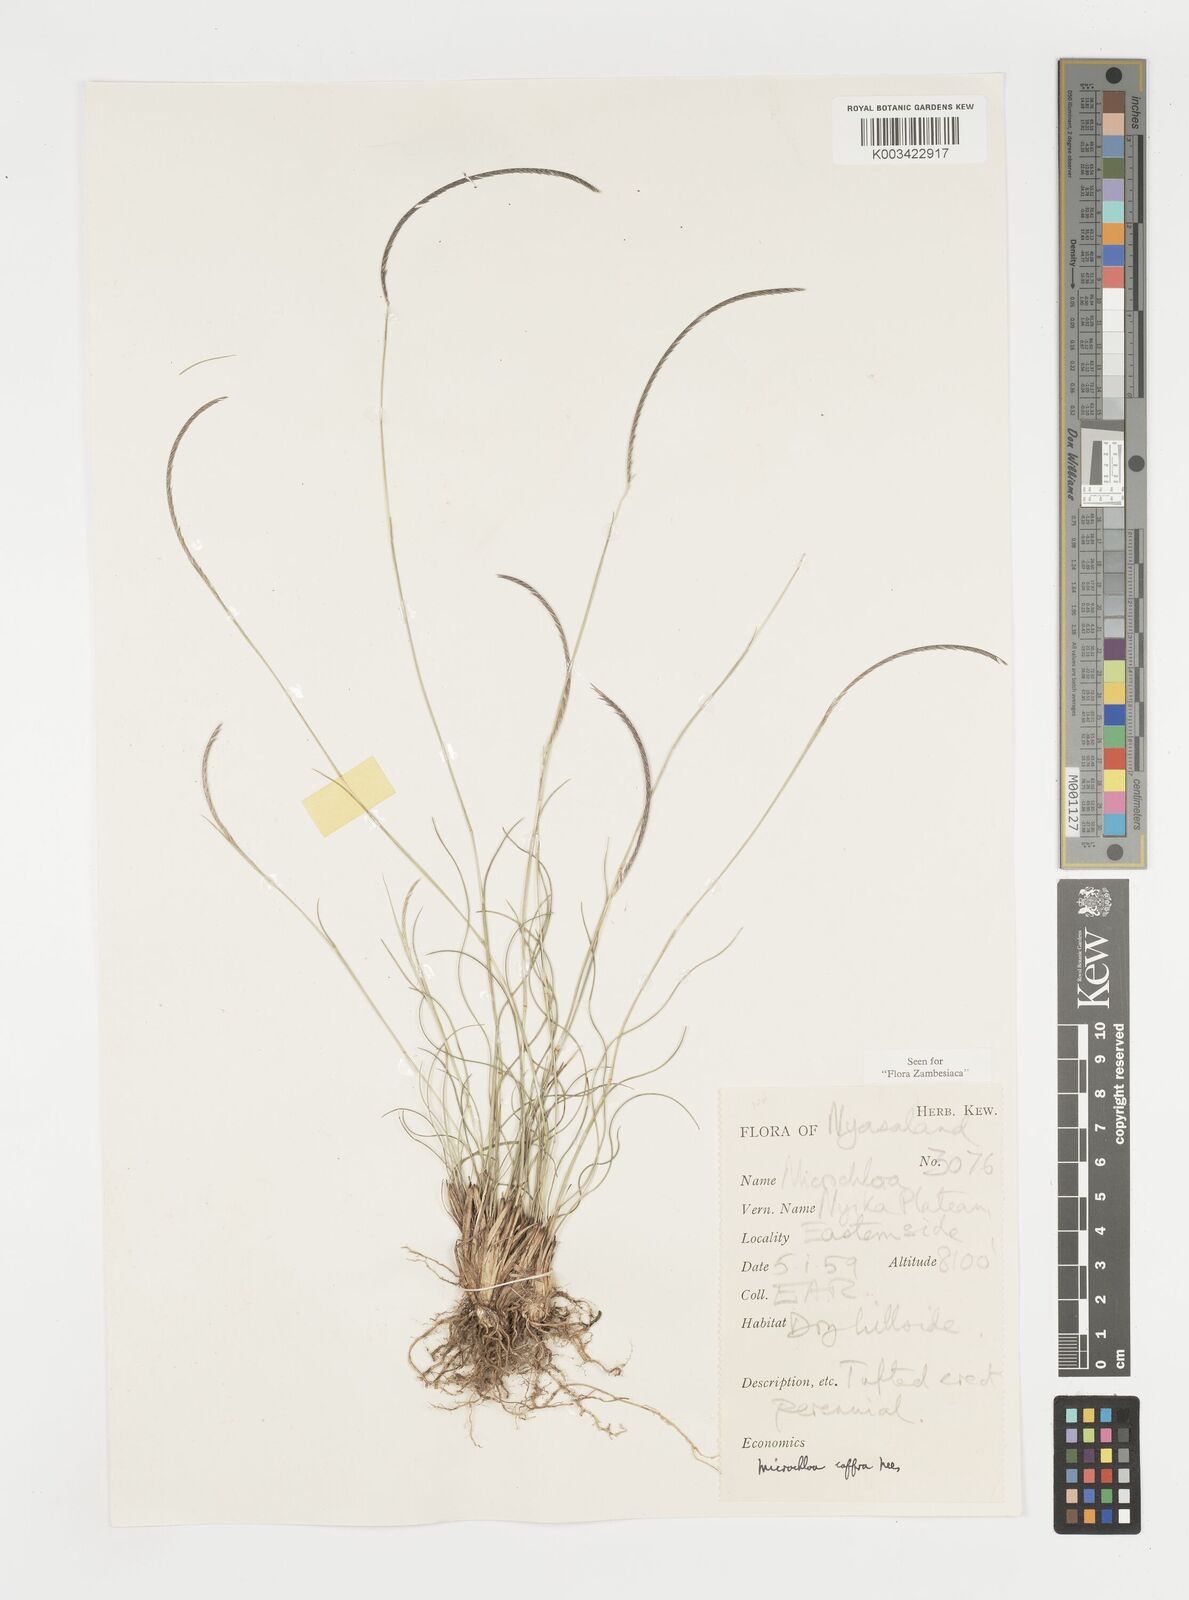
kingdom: Plantae
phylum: Tracheophyta
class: Liliopsida
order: Poales
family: Poaceae
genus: Microchloa
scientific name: Microchloa caffra
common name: Pincushion grass
